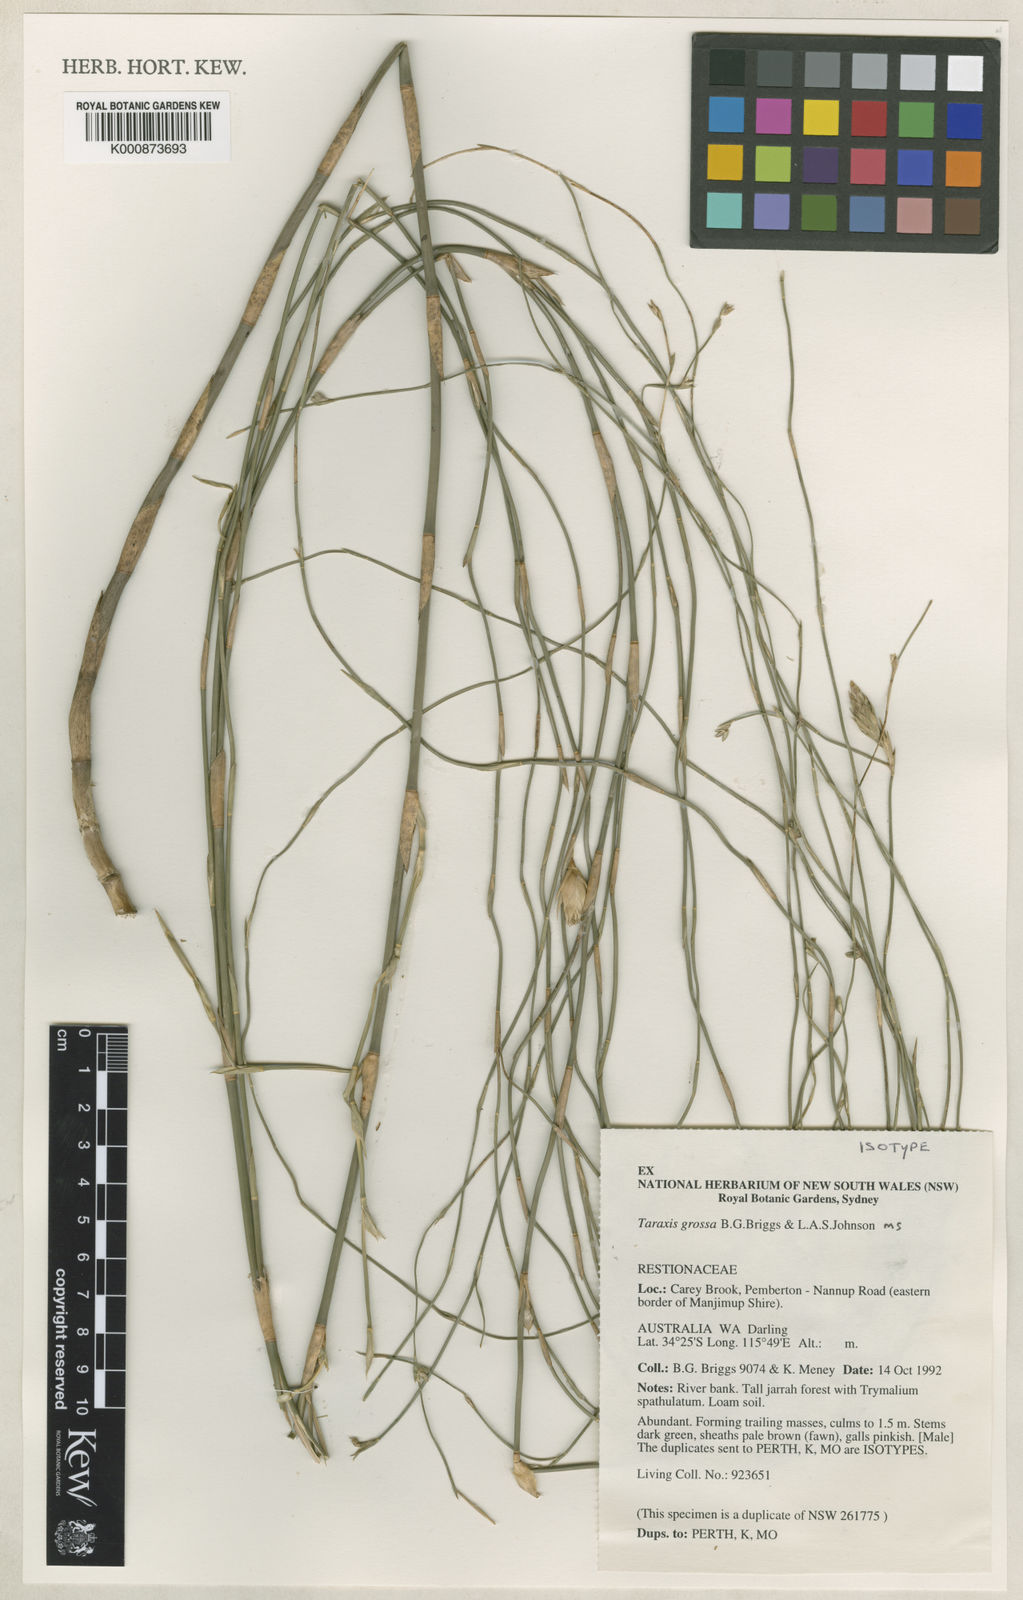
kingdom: Plantae
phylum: Tracheophyta
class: Liliopsida
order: Poales
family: Restionaceae
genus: Taraxis
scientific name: Taraxis grossa
